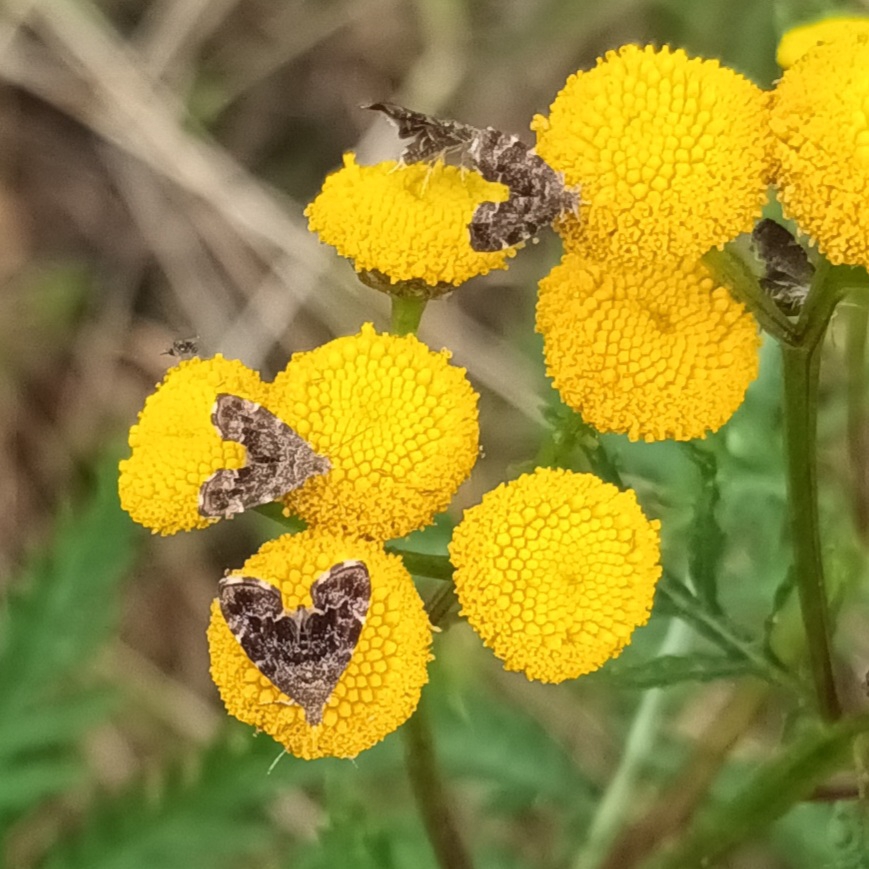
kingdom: Animalia
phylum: Arthropoda
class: Insecta
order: Lepidoptera
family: Choreutidae
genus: Anthophila
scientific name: Anthophila fabriciana
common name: Bredvinget nældevikler
